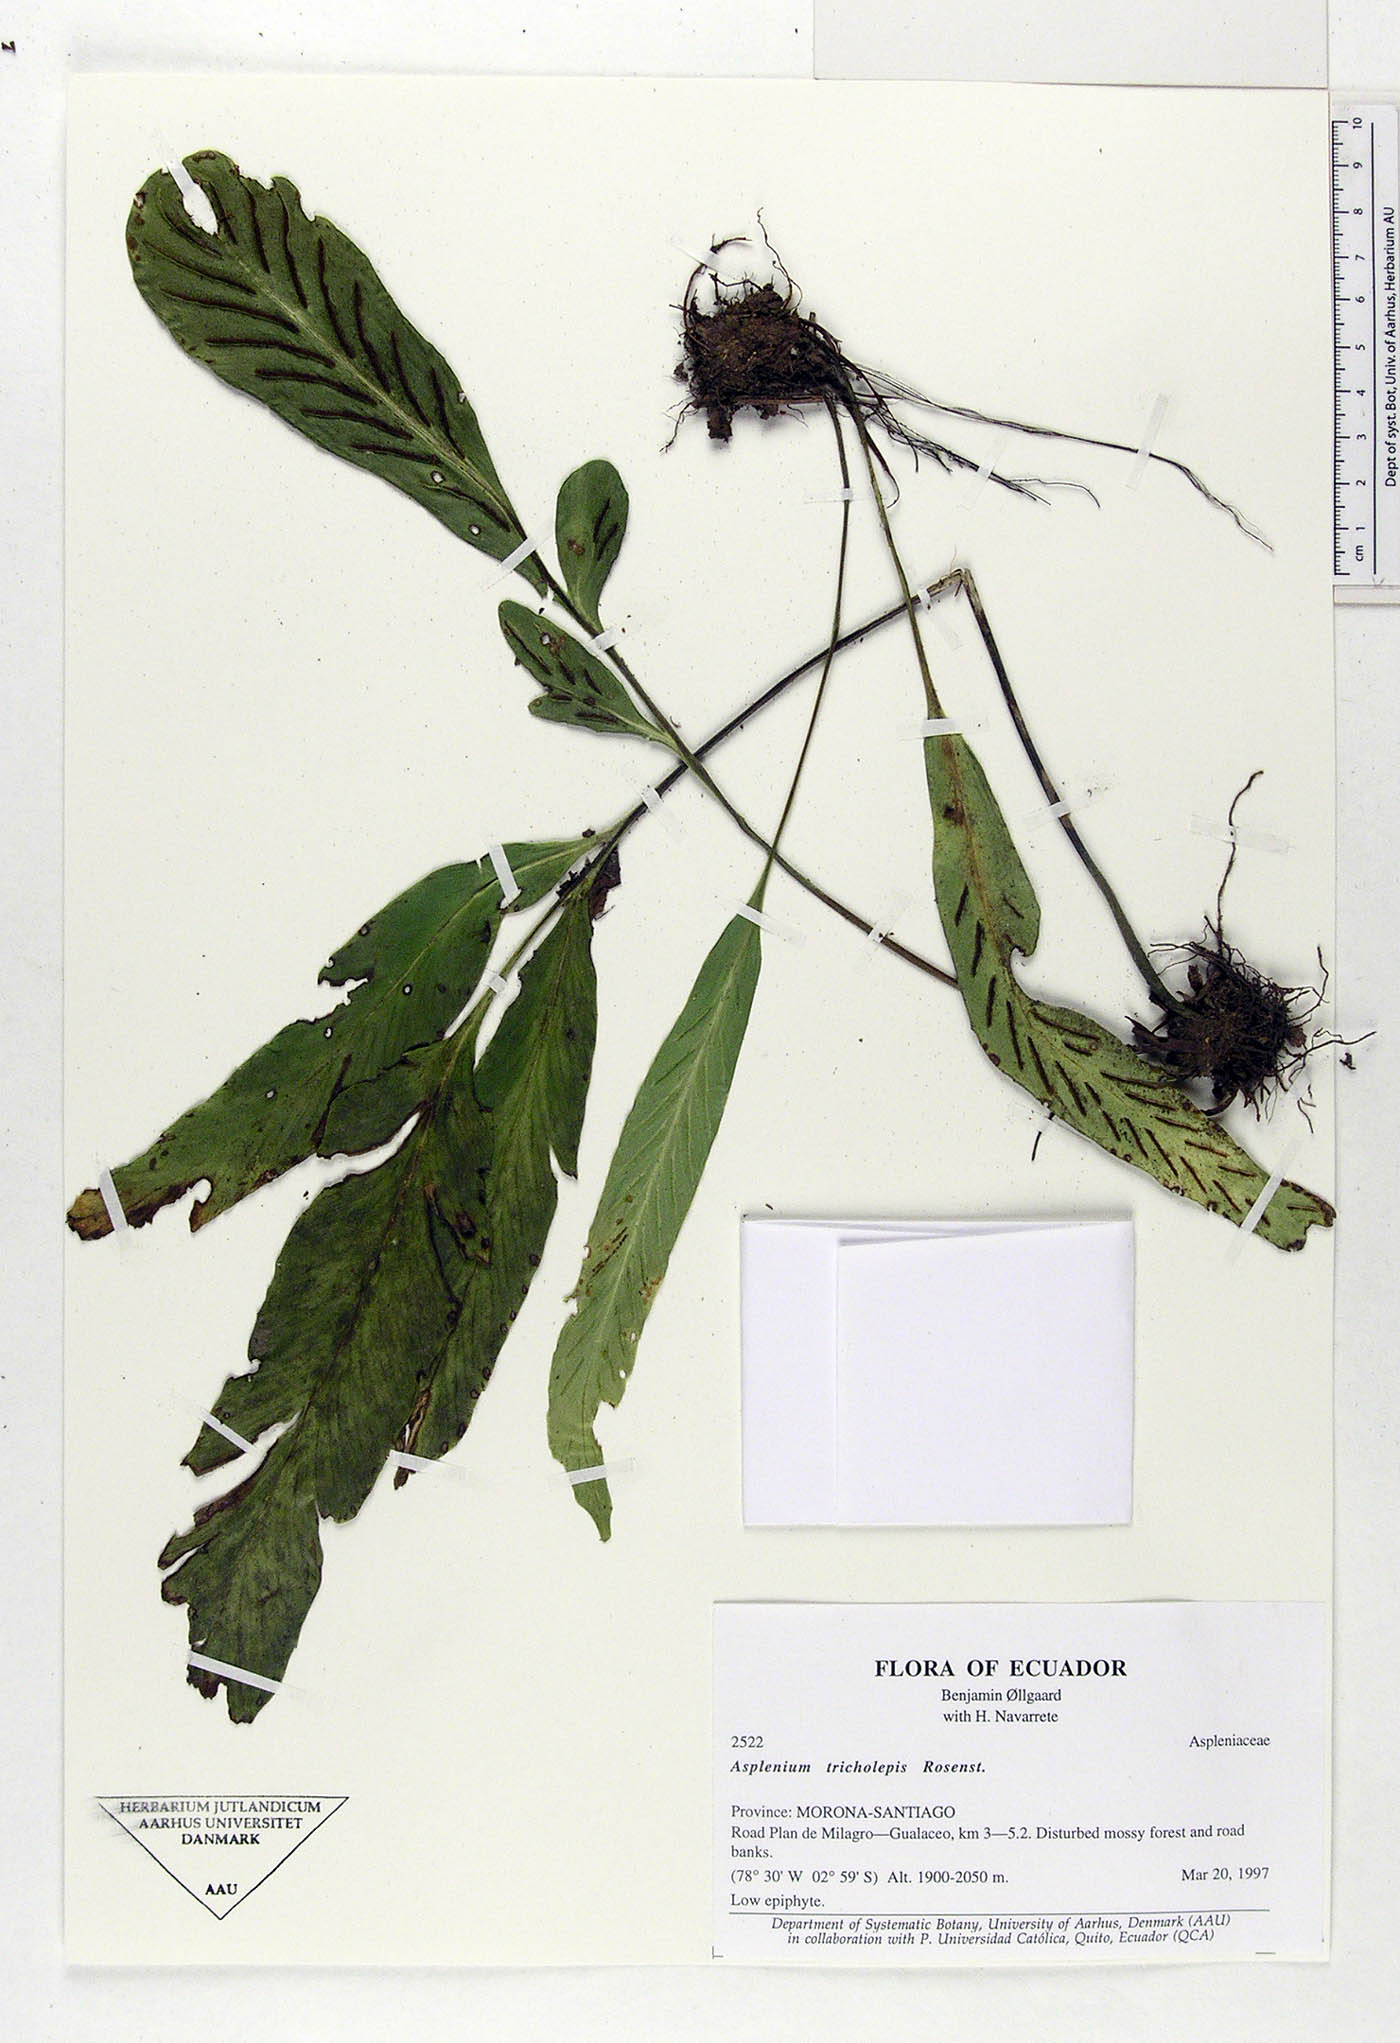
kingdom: Plantae
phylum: Tracheophyta
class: Polypodiopsida
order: Polypodiales
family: Aspleniaceae
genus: Asplenium
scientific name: Asplenium tricholepis
